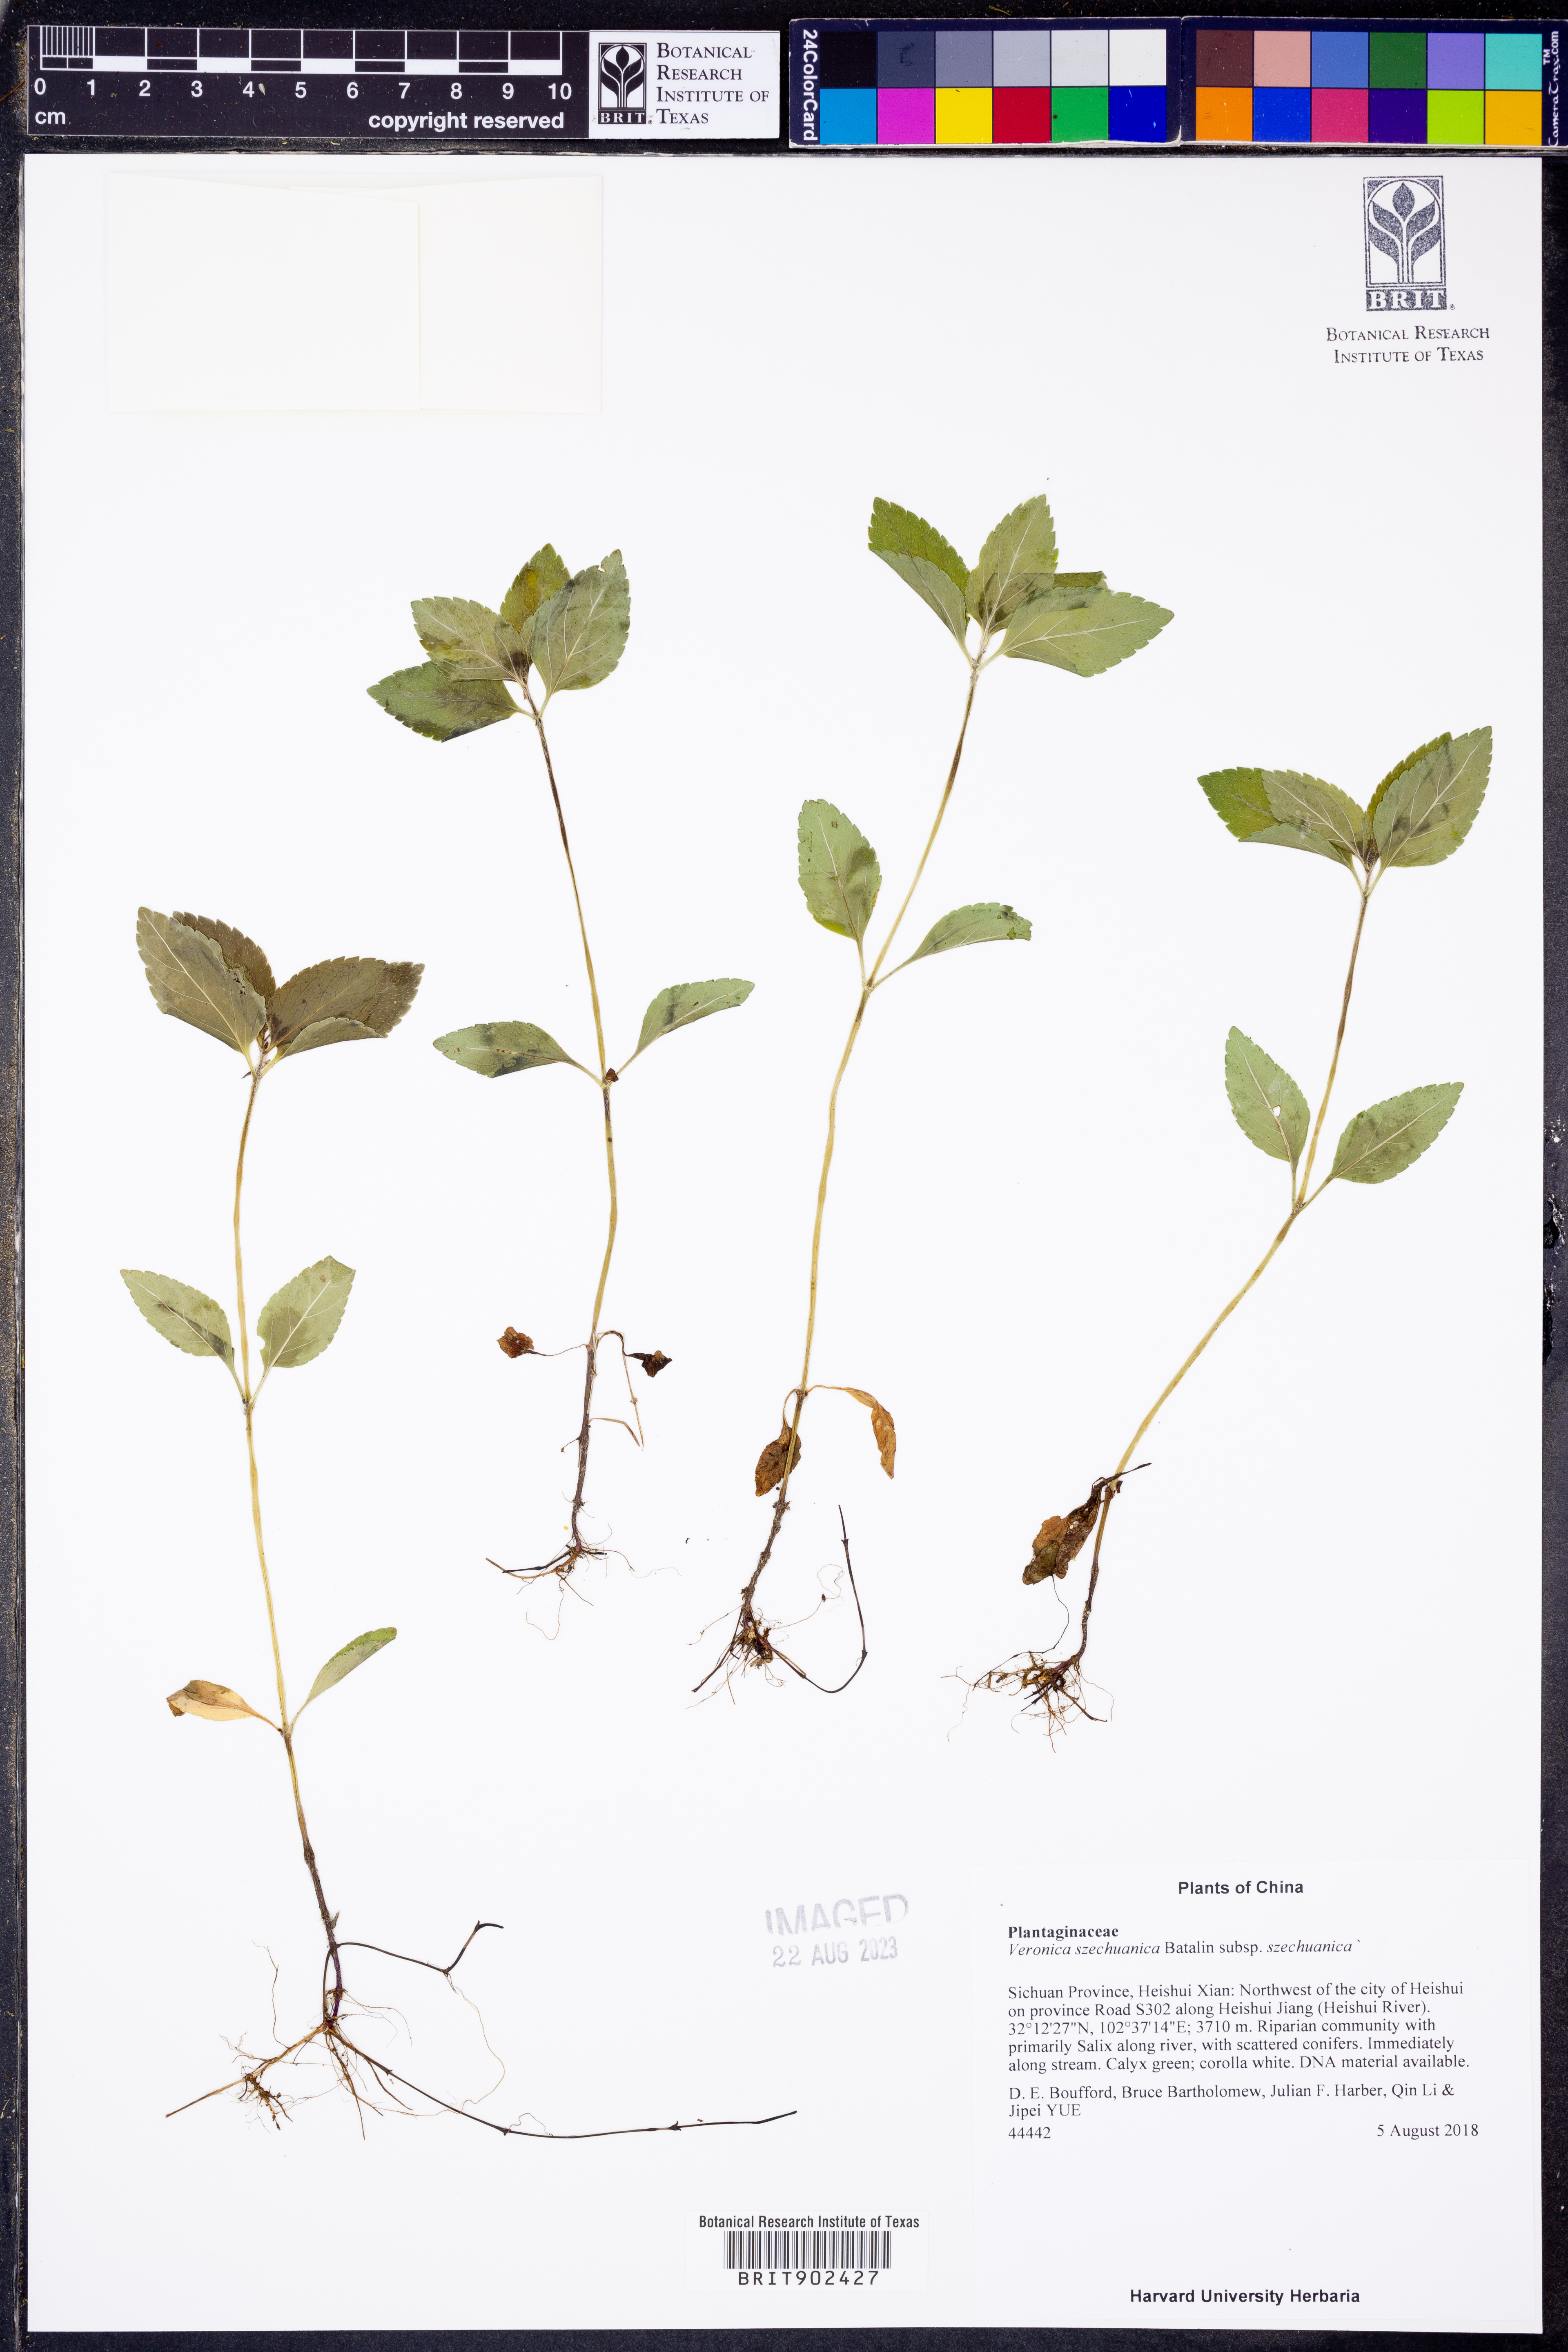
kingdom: Plantae
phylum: Tracheophyta
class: Magnoliopsida
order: Lamiales
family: Plantaginaceae
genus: Veronica
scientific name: Veronica
